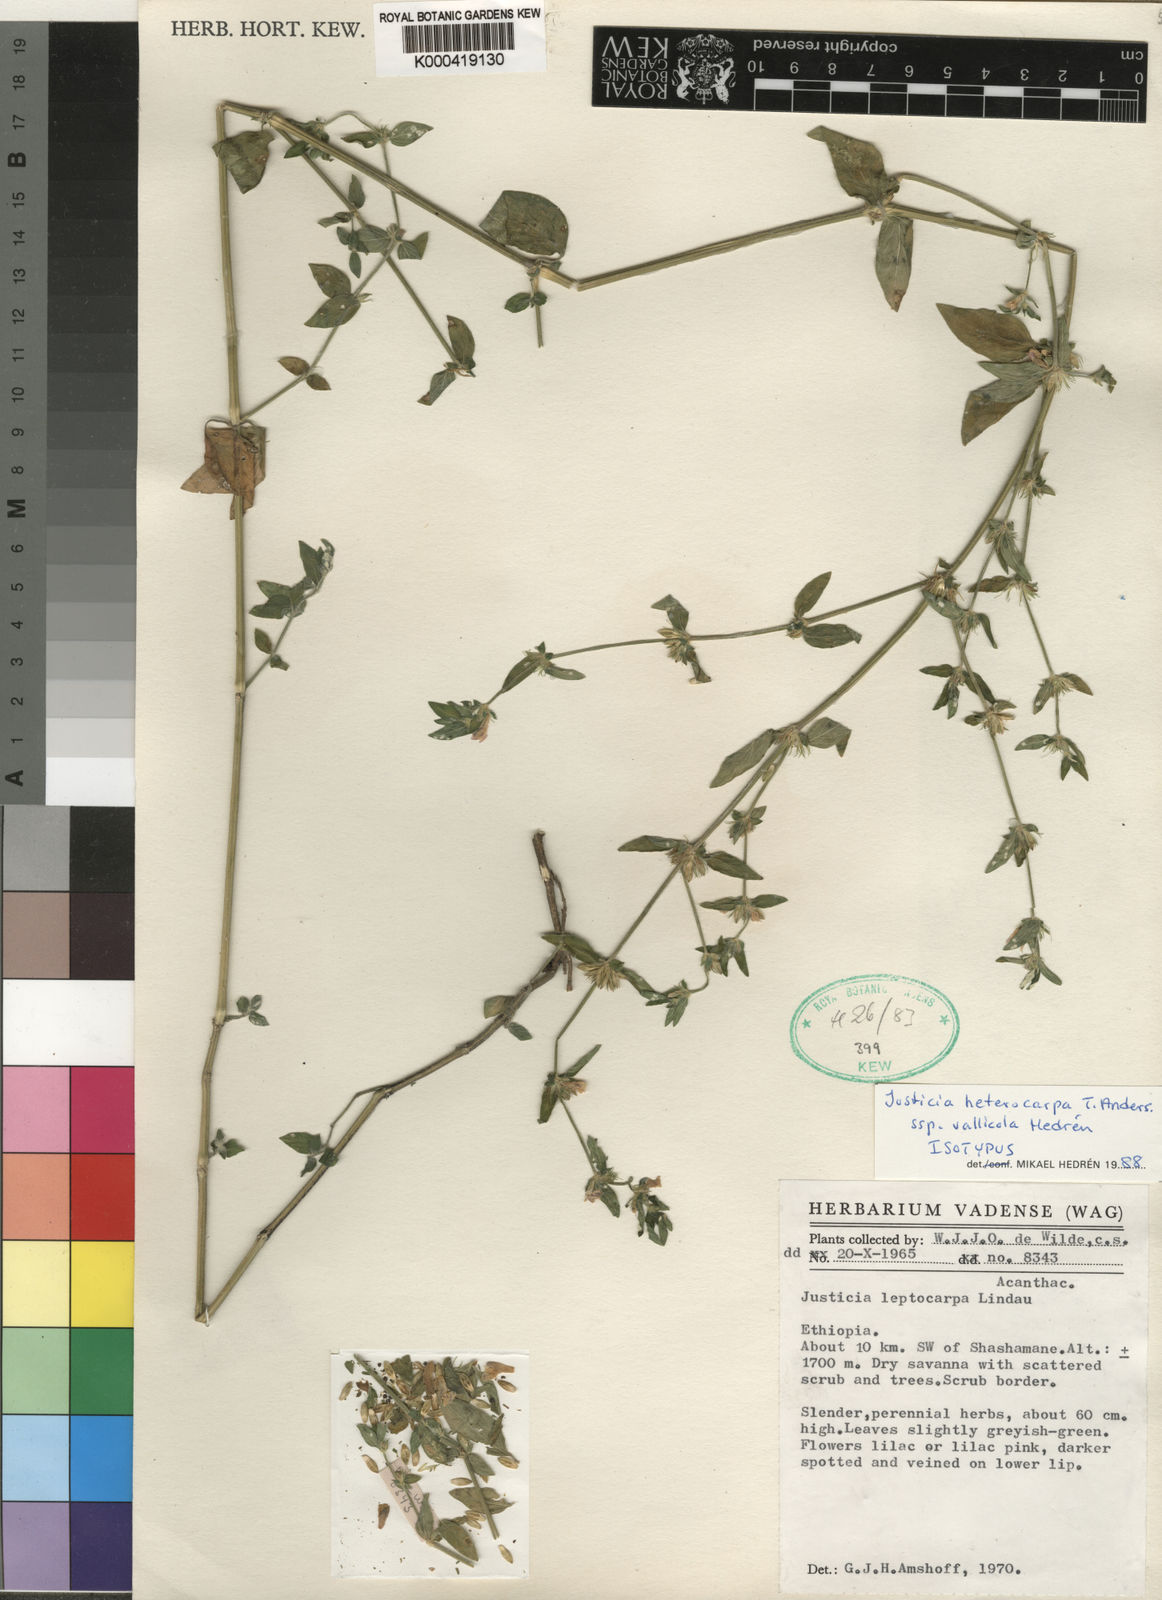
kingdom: Plantae
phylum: Tracheophyta
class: Magnoliopsida
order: Lamiales
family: Acanthaceae
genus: Justicia
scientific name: Justicia heterocarpa
